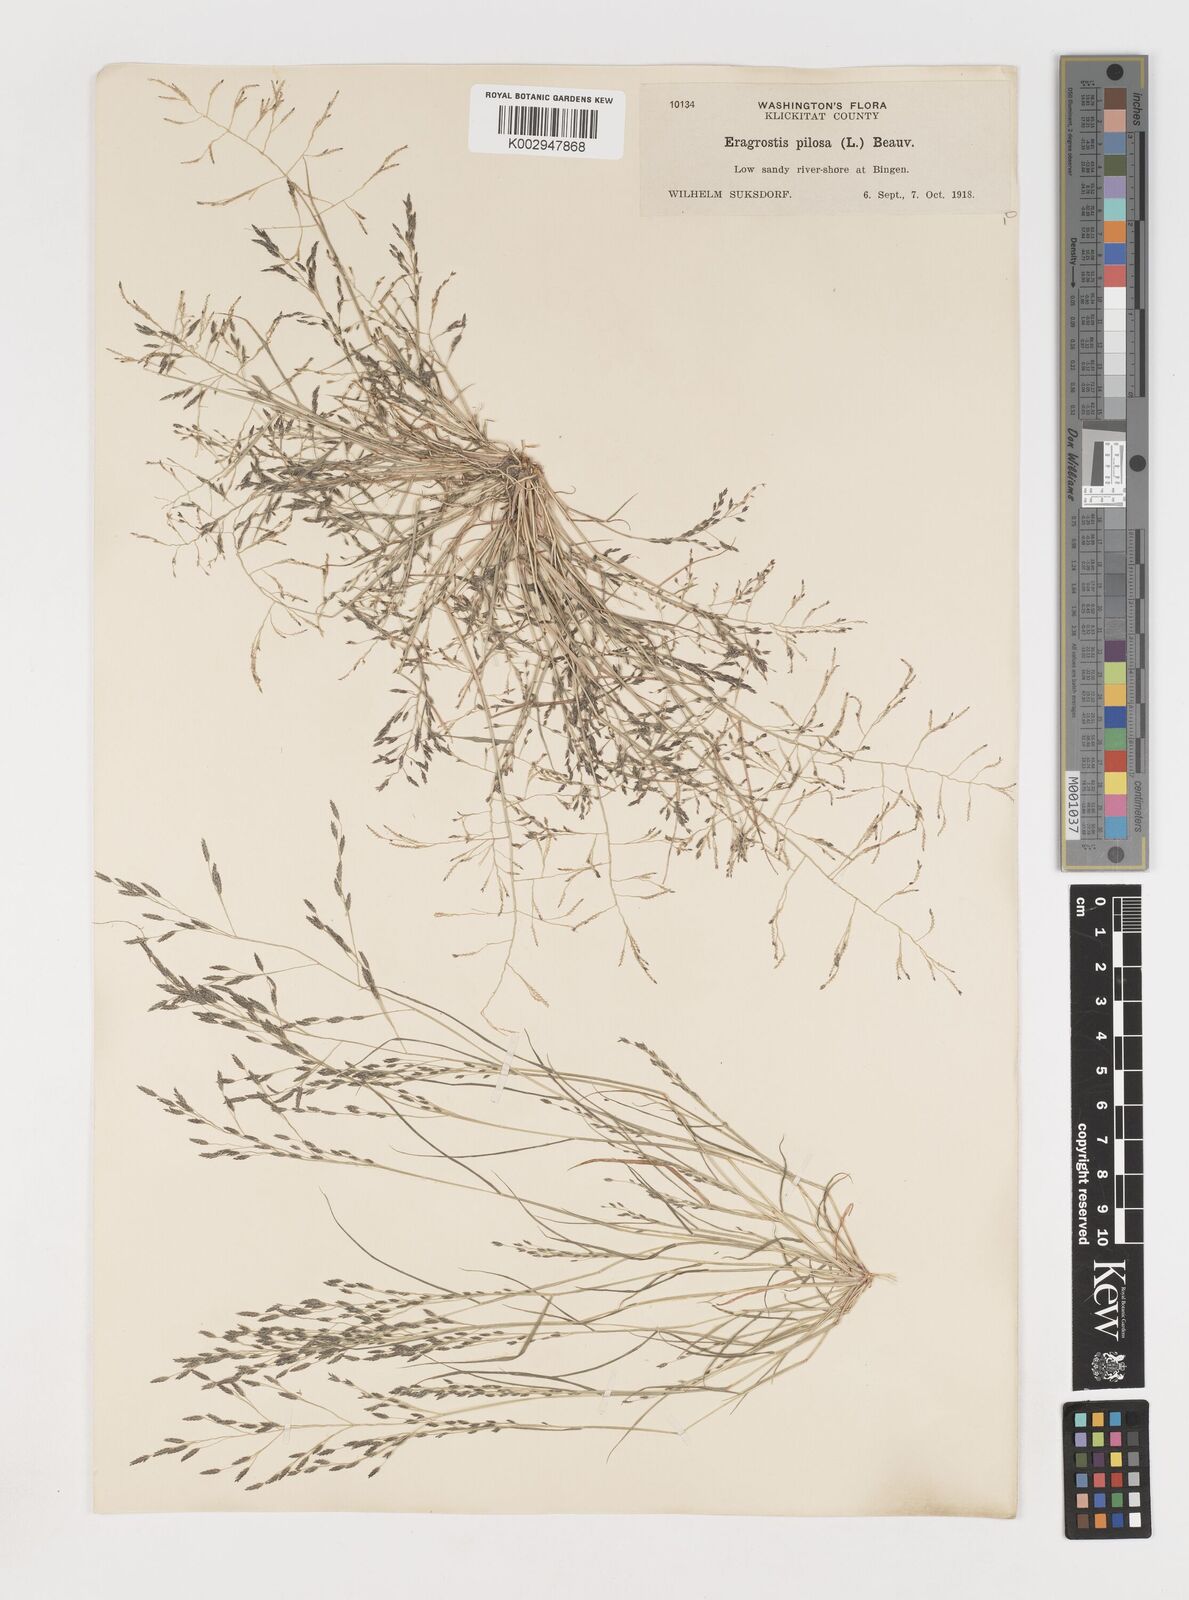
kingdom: Plantae
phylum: Tracheophyta
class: Liliopsida
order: Poales
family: Poaceae
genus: Eragrostis
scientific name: Eragrostis
